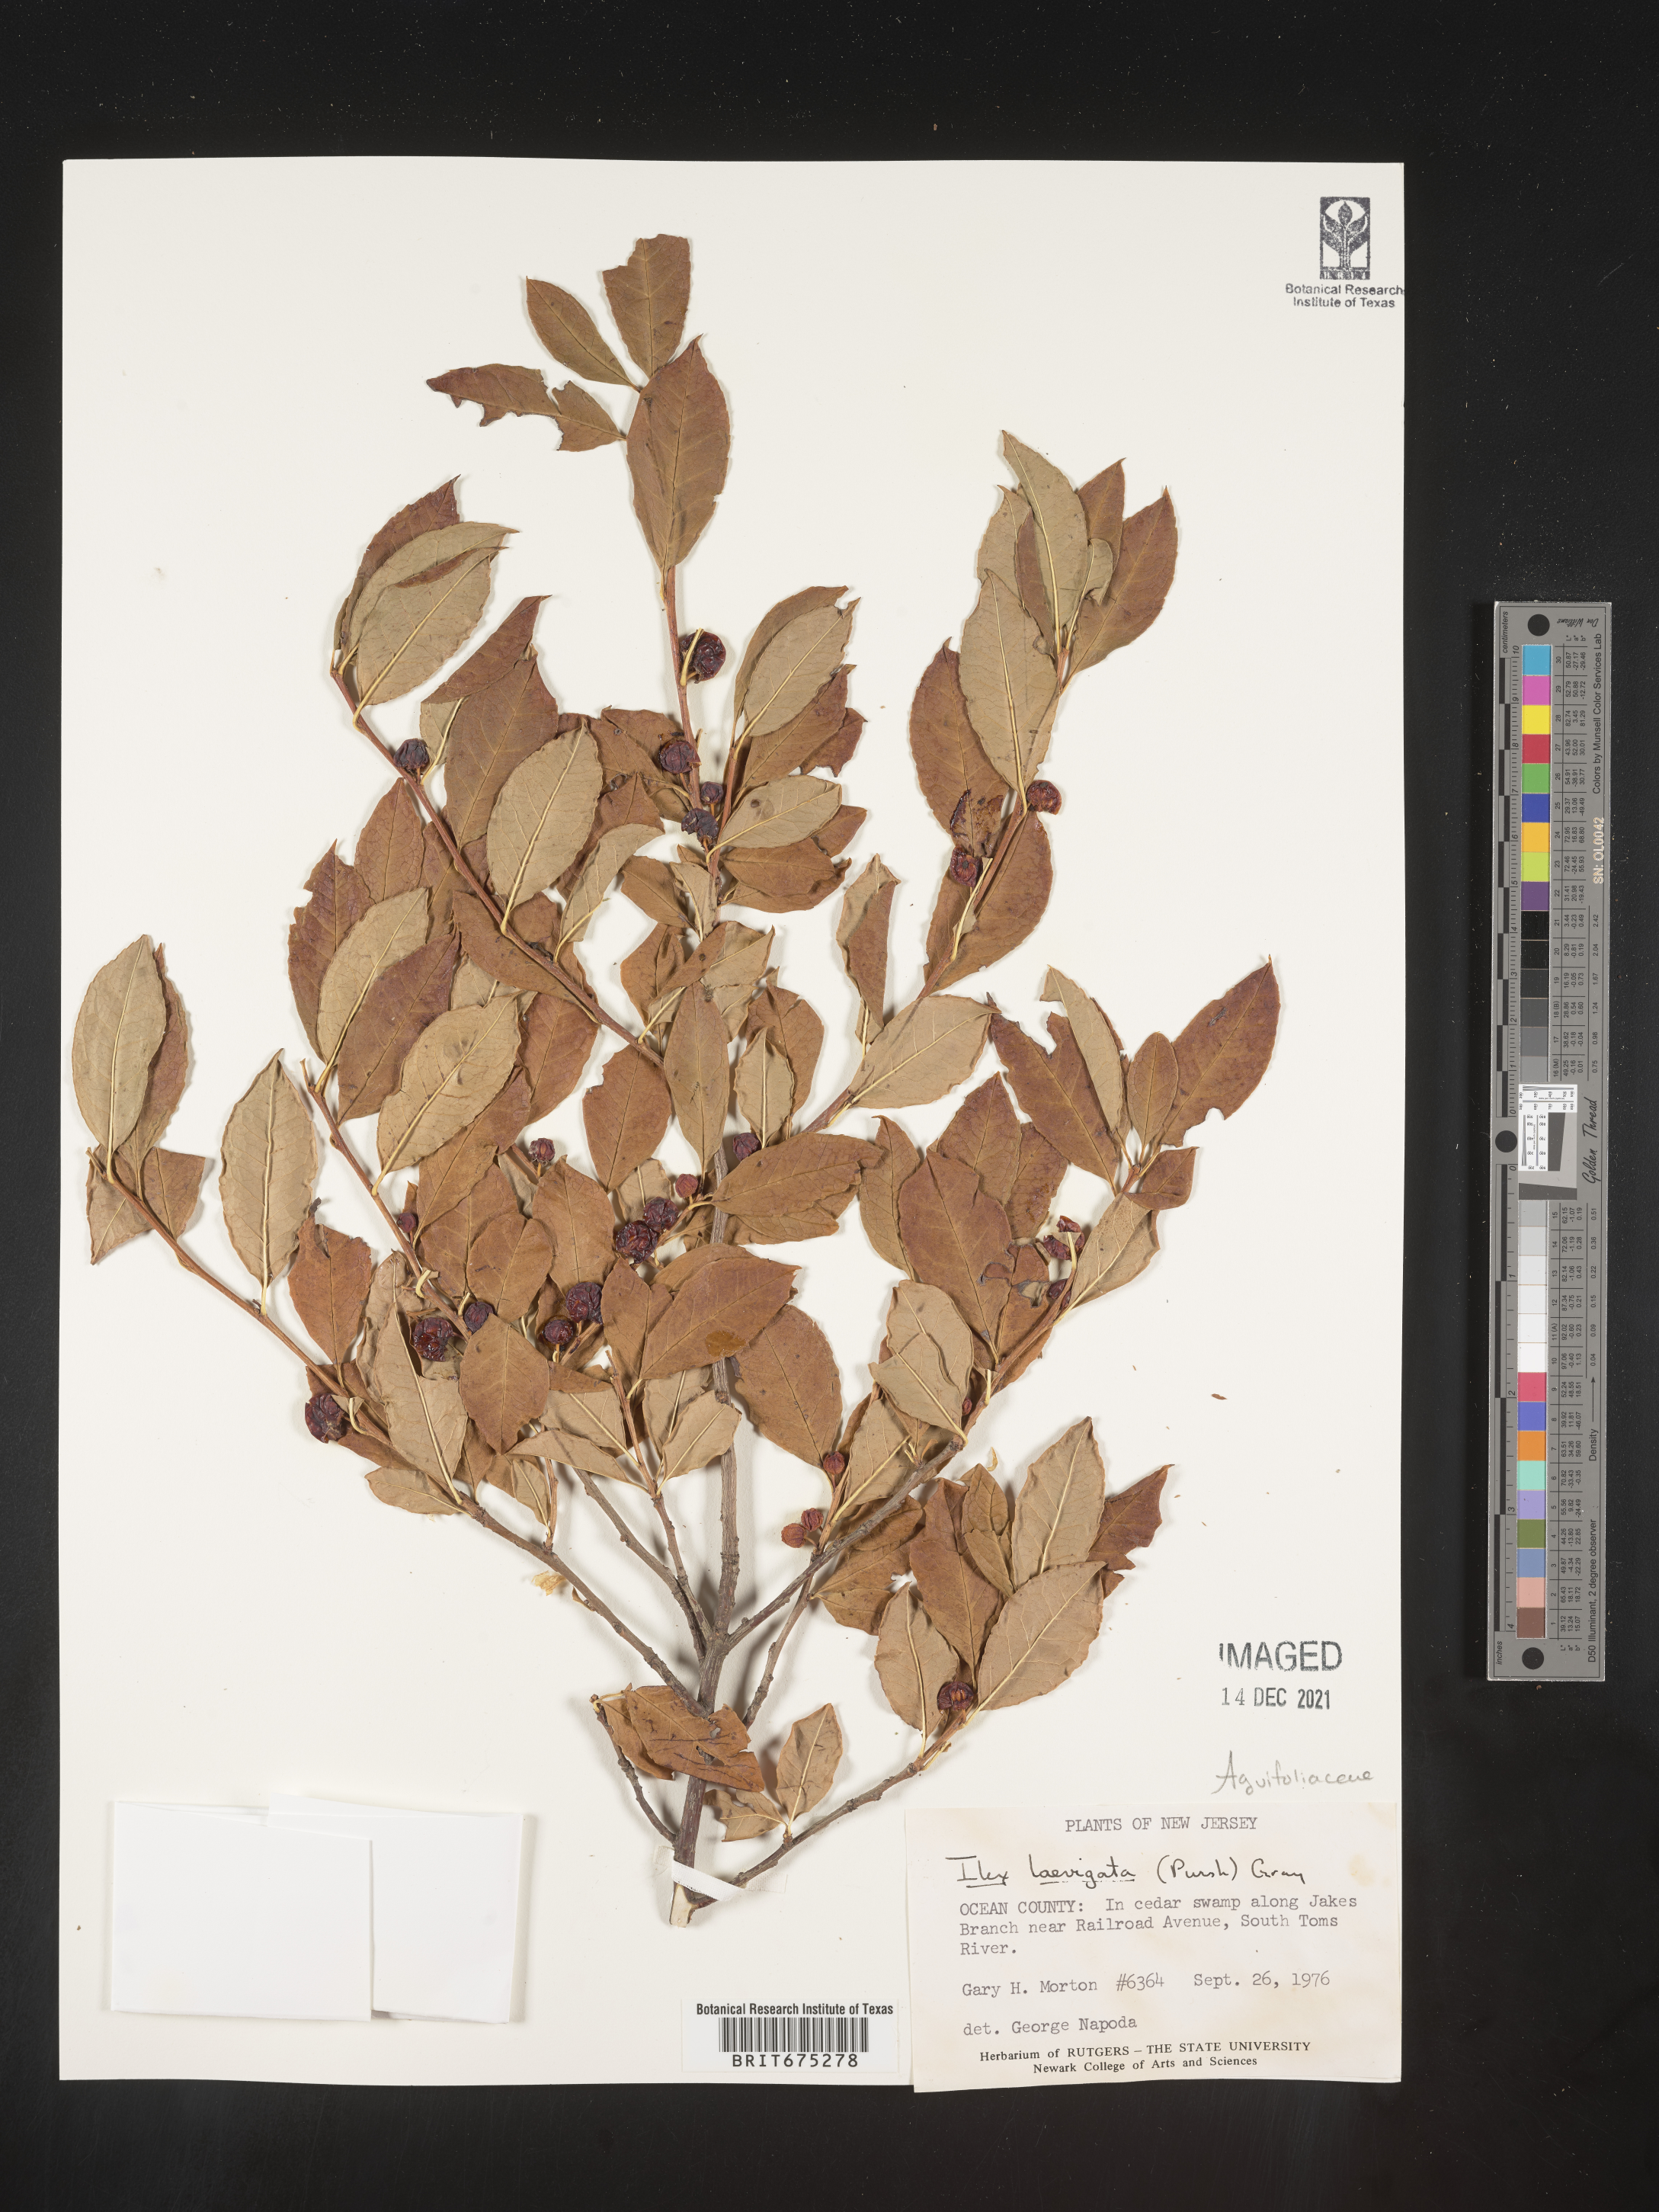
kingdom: Plantae
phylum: Tracheophyta
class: Magnoliopsida
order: Aquifoliales
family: Aquifoliaceae
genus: Ilex
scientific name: Ilex laevigata
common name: Smooth winterberry
